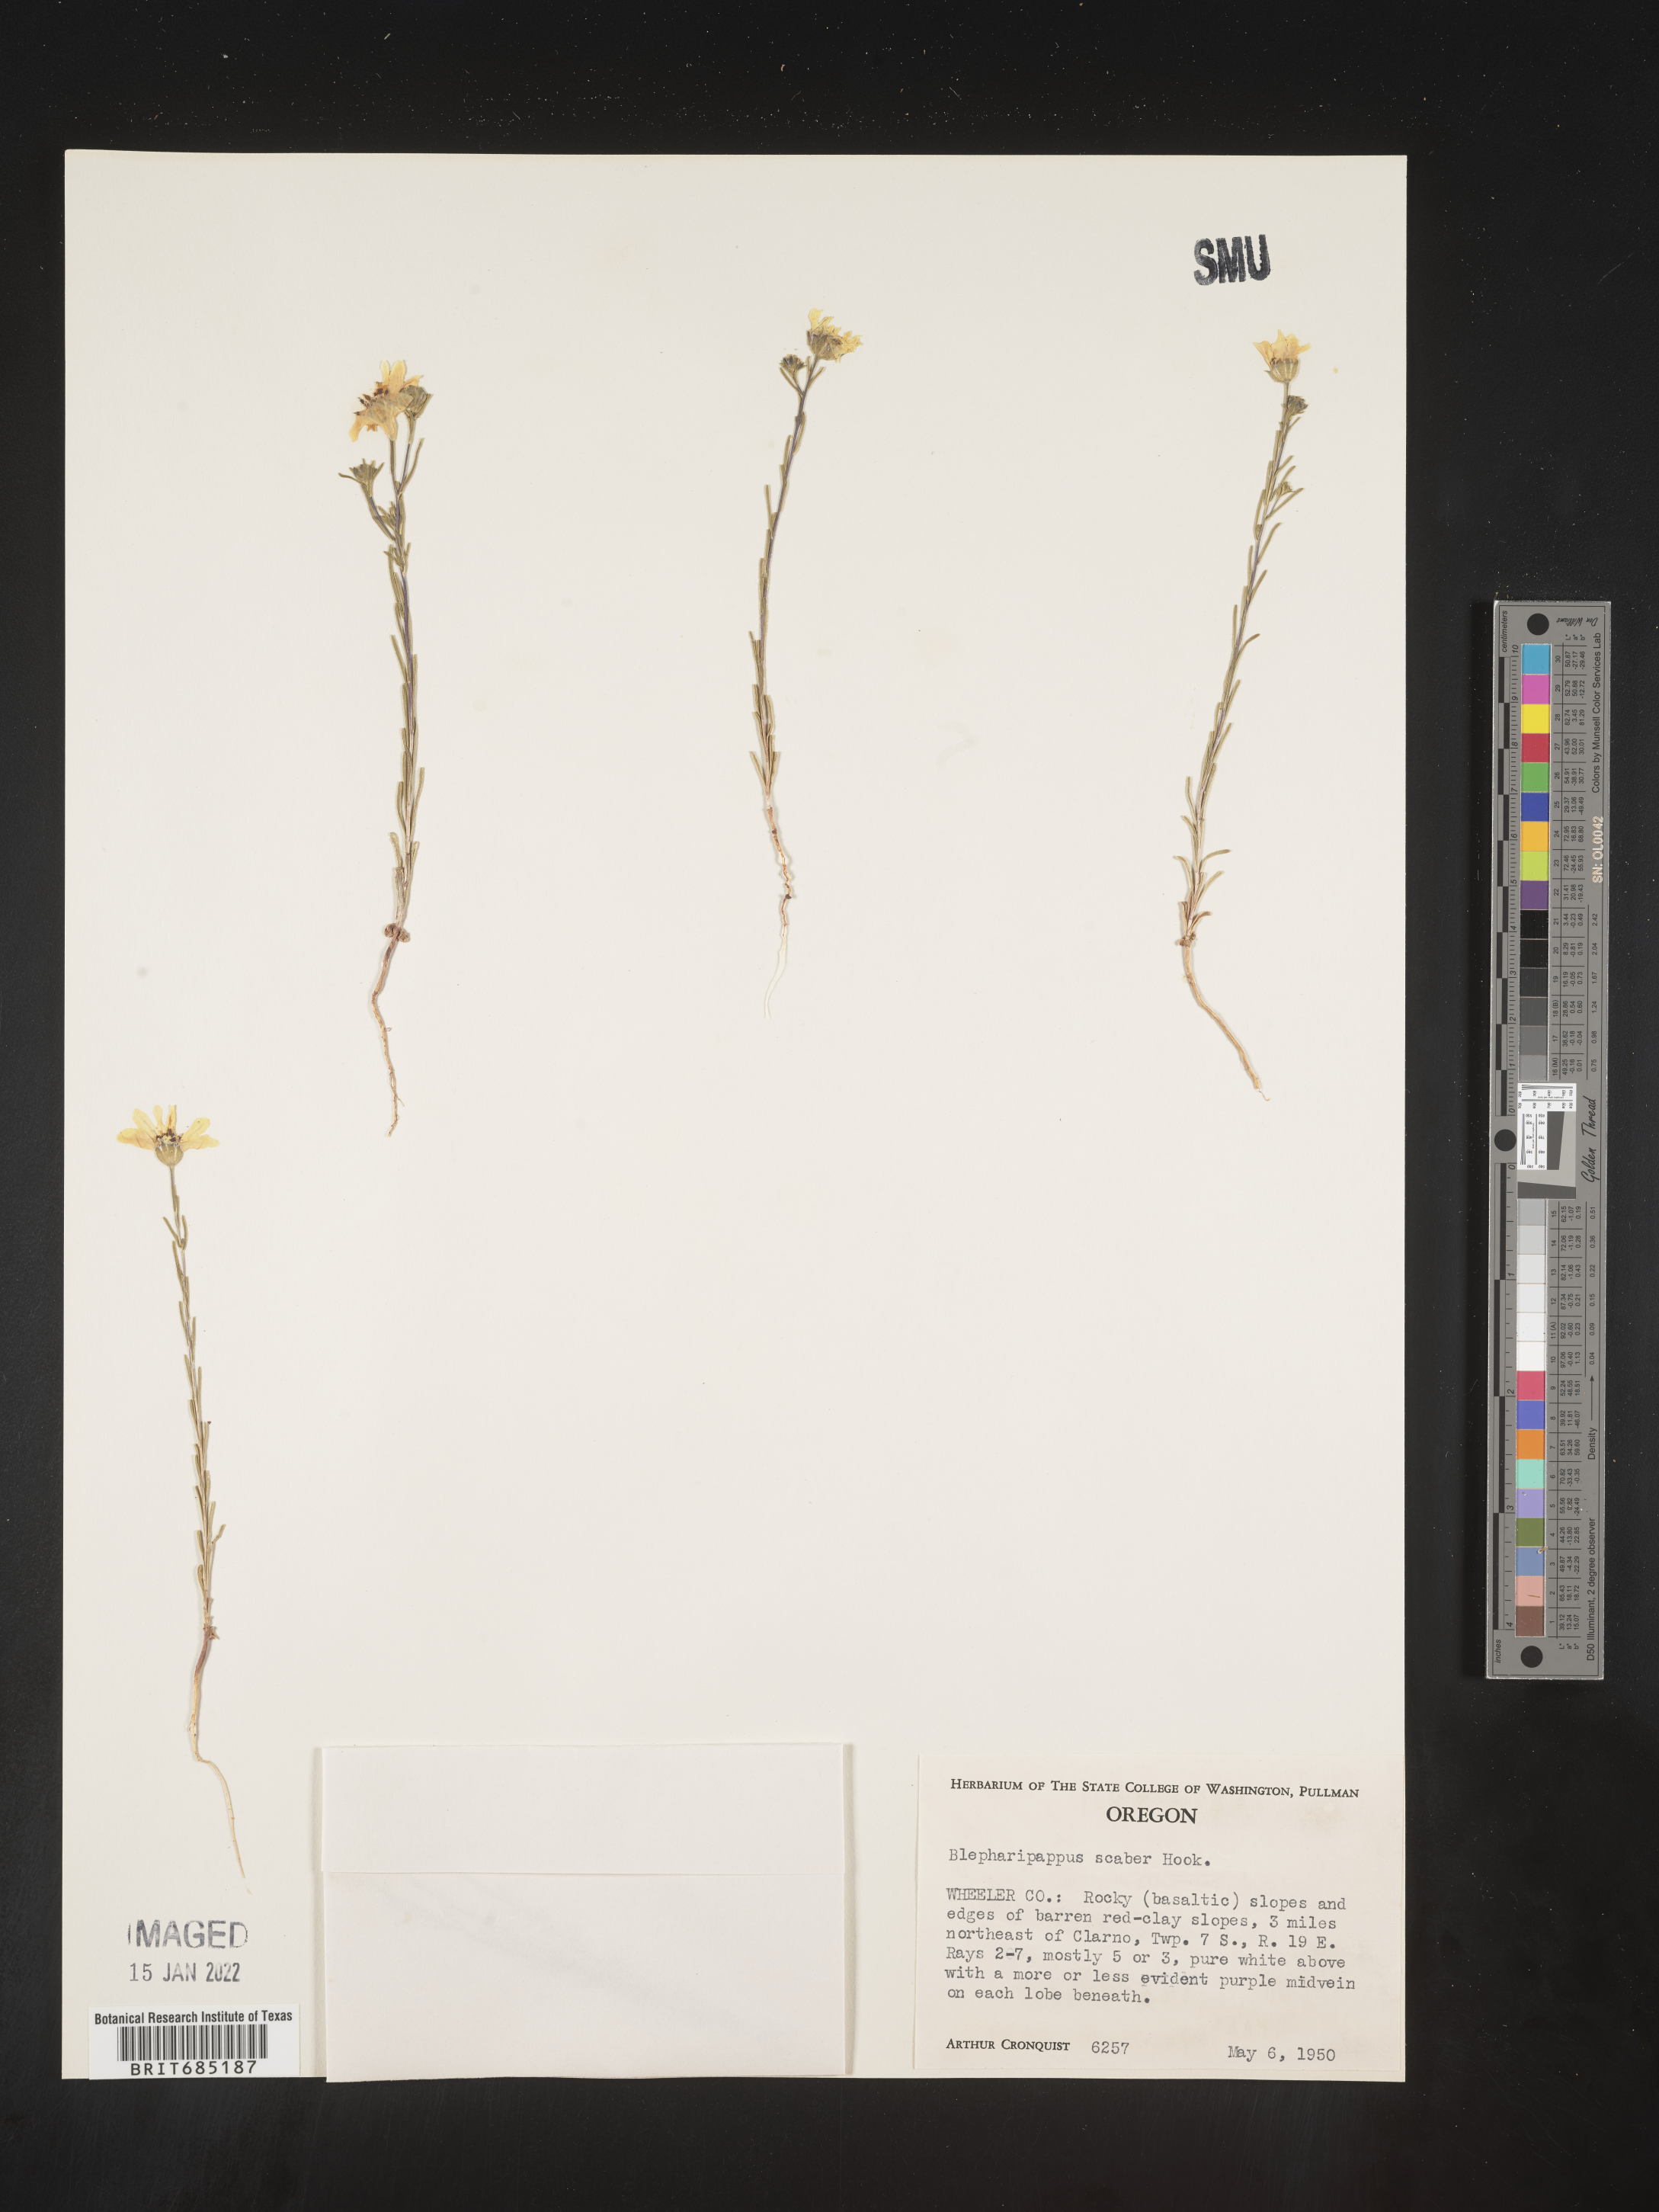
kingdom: Plantae
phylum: Tracheophyta
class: Magnoliopsida
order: Asterales
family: Asteraceae
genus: Blepharipappus
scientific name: Blepharipappus
